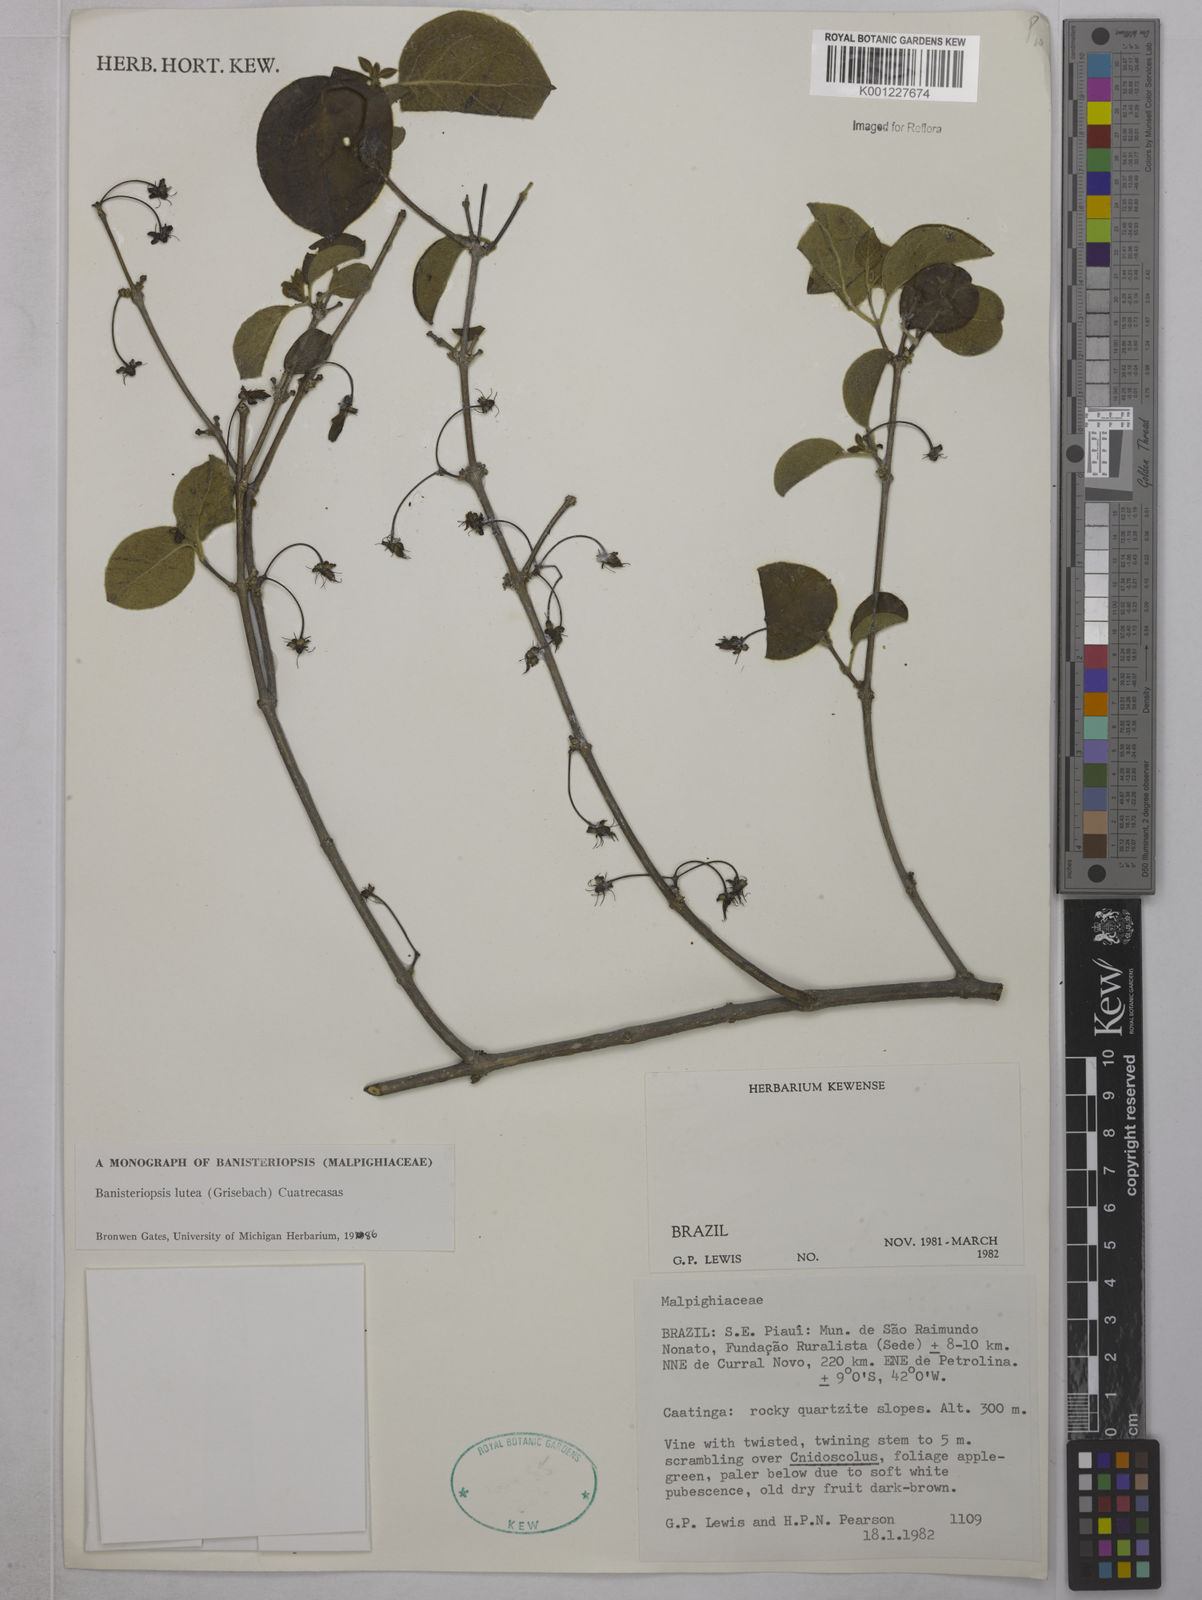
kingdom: Plantae
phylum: Tracheophyta
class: Magnoliopsida
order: Malpighiales
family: Malpighiaceae
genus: Diplopterys
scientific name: Diplopterys lutea
